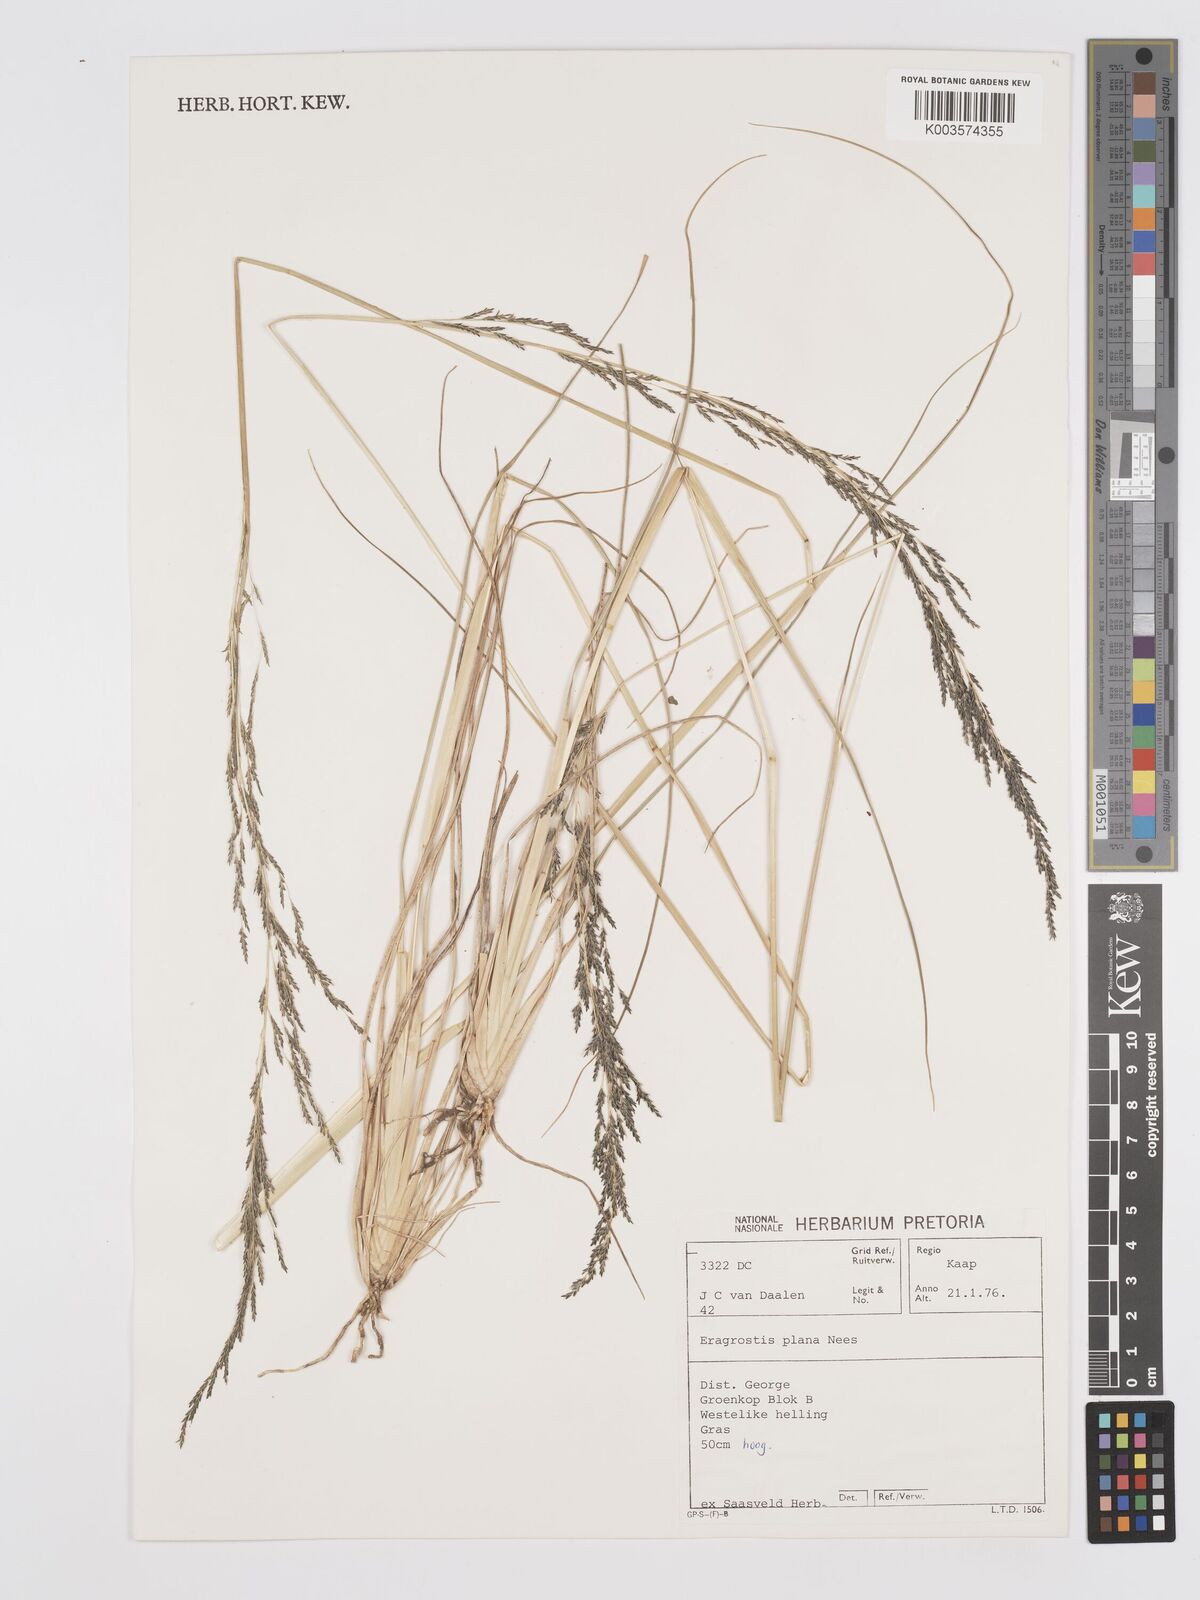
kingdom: Plantae
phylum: Tracheophyta
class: Liliopsida
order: Poales
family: Poaceae
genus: Eragrostis
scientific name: Eragrostis plana
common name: South african lovegrass
